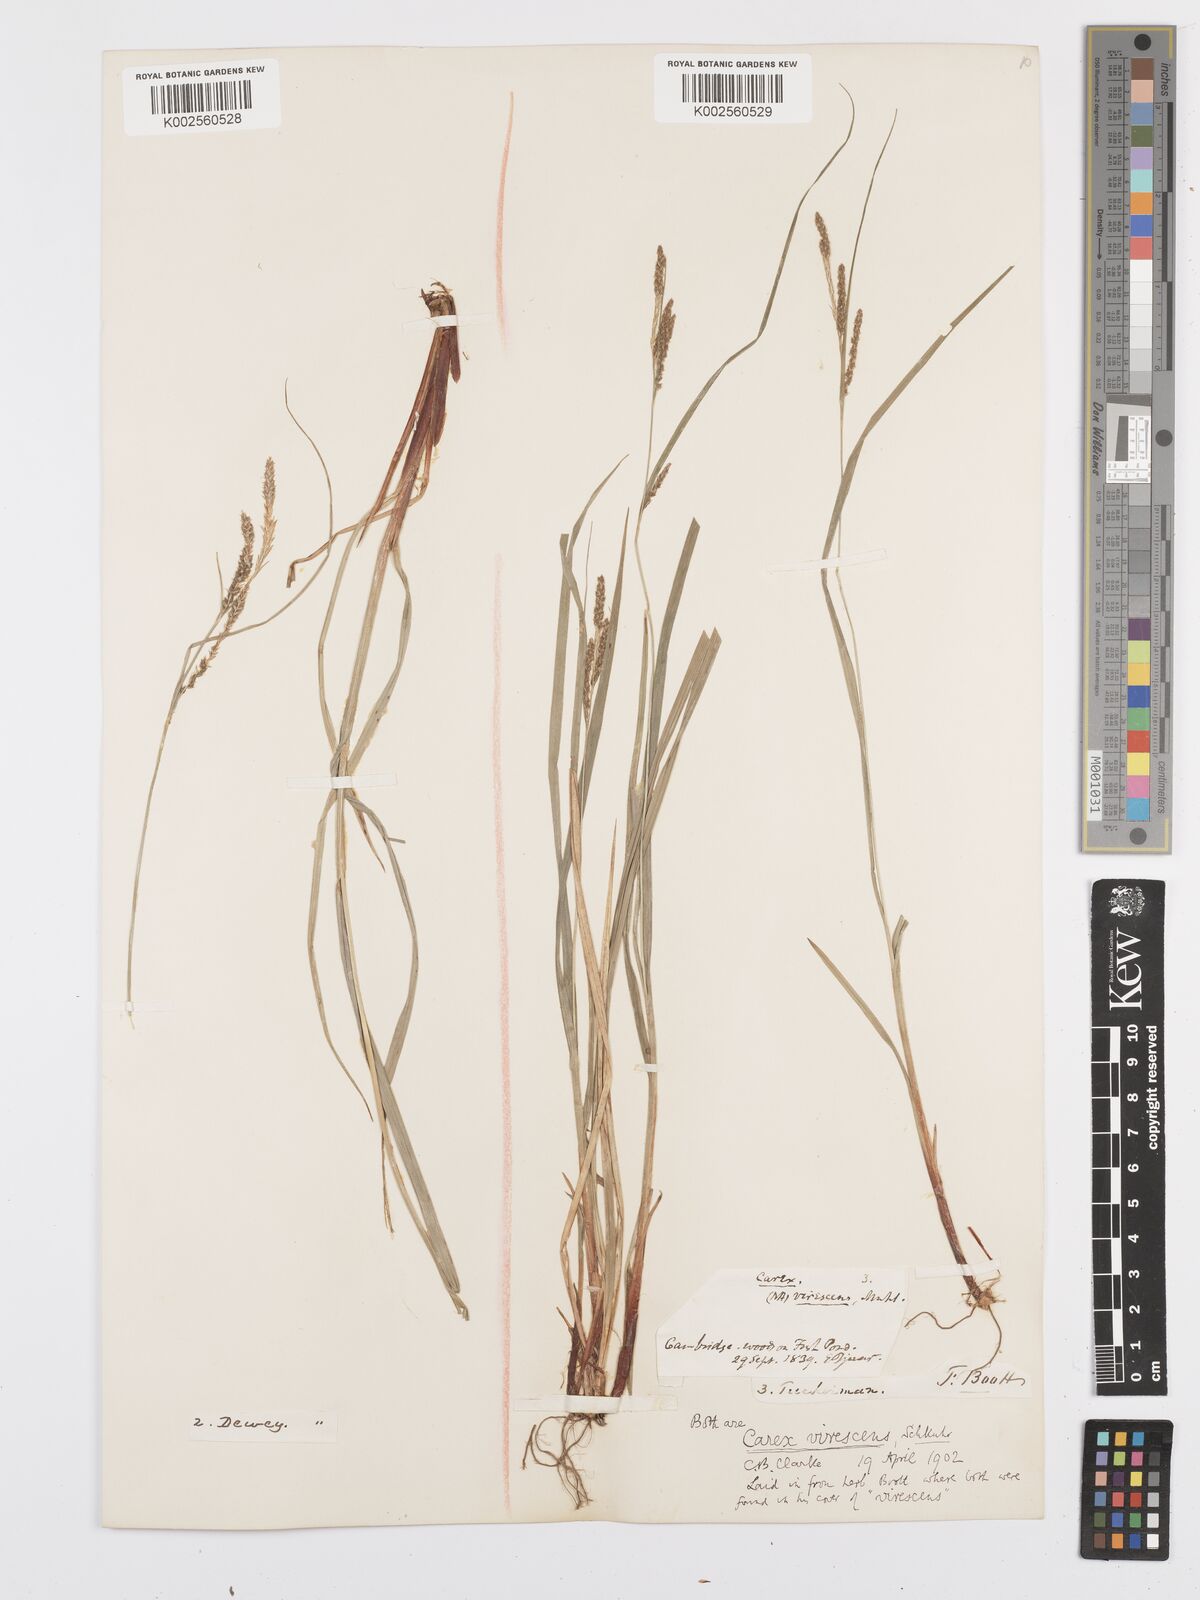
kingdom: Plantae
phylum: Tracheophyta
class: Liliopsida
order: Poales
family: Cyperaceae
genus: Carex
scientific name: Carex virescens
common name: Ribbed sedge
